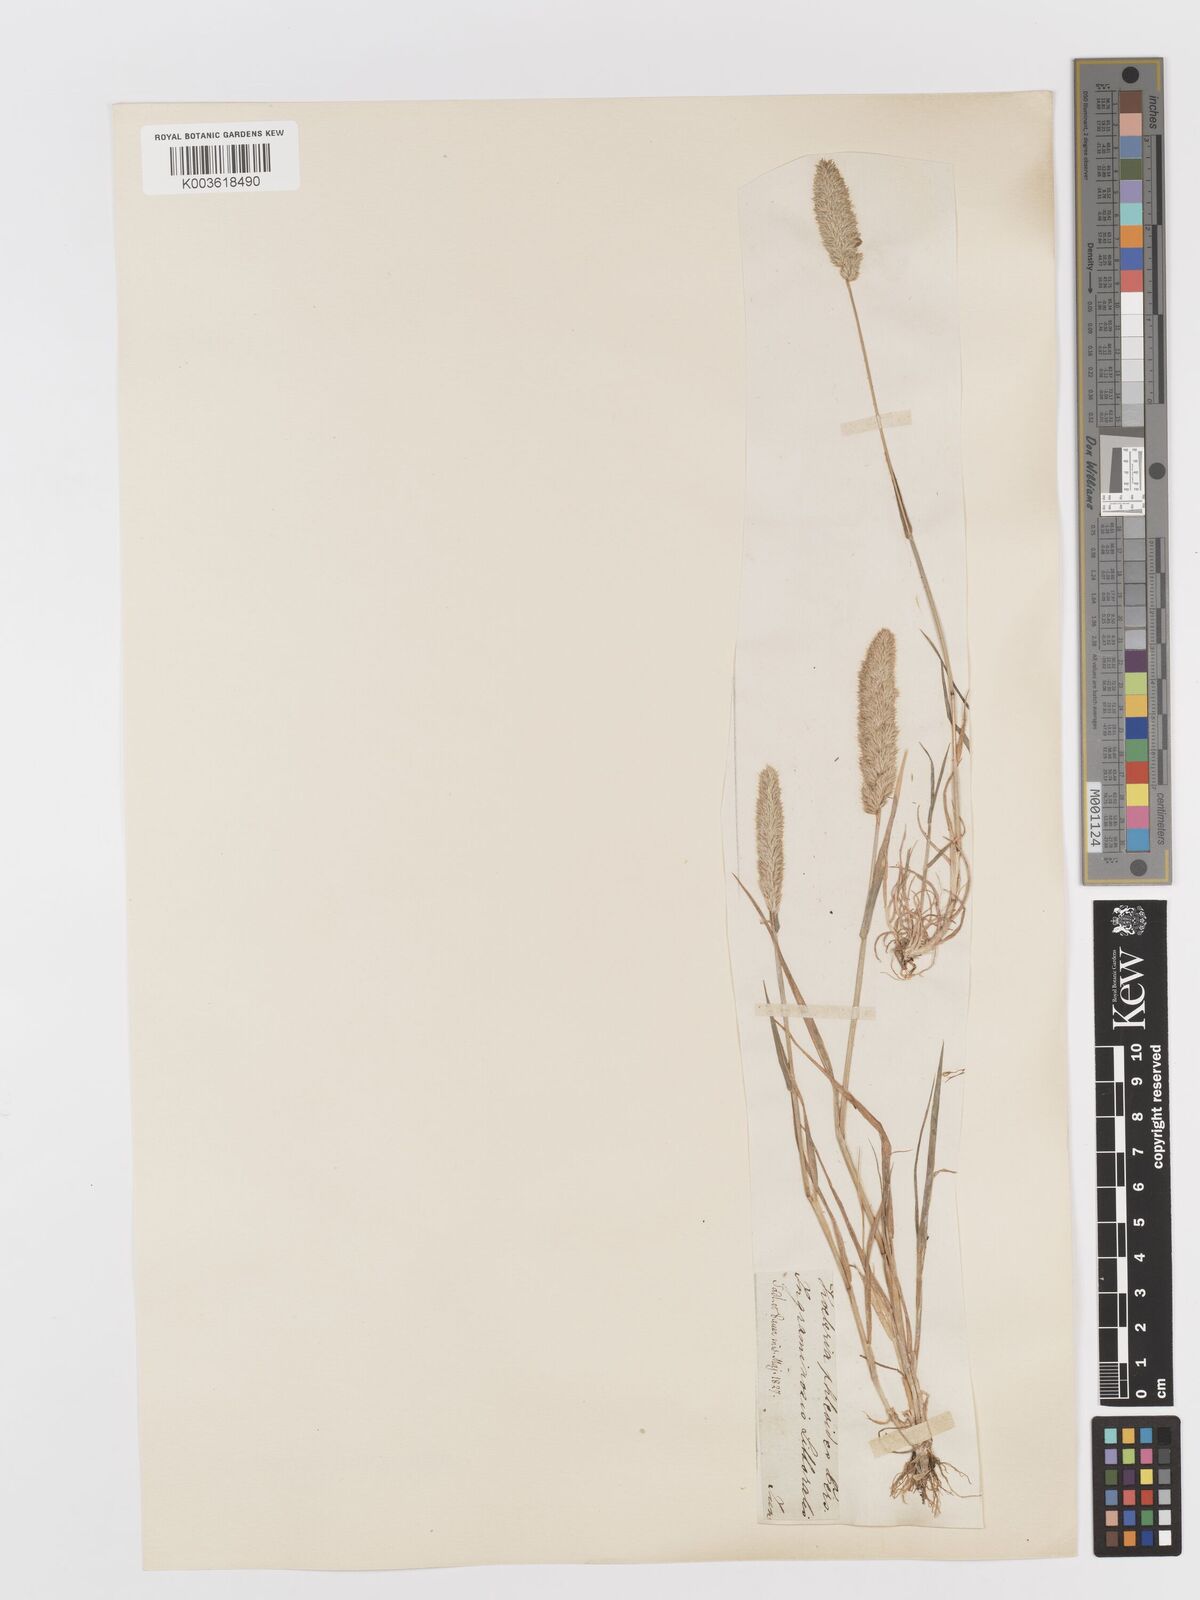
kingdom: Plantae
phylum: Tracheophyta
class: Liliopsida
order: Poales
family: Poaceae
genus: Rostraria
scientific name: Rostraria cristata
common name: Mediterranean hair-grass
